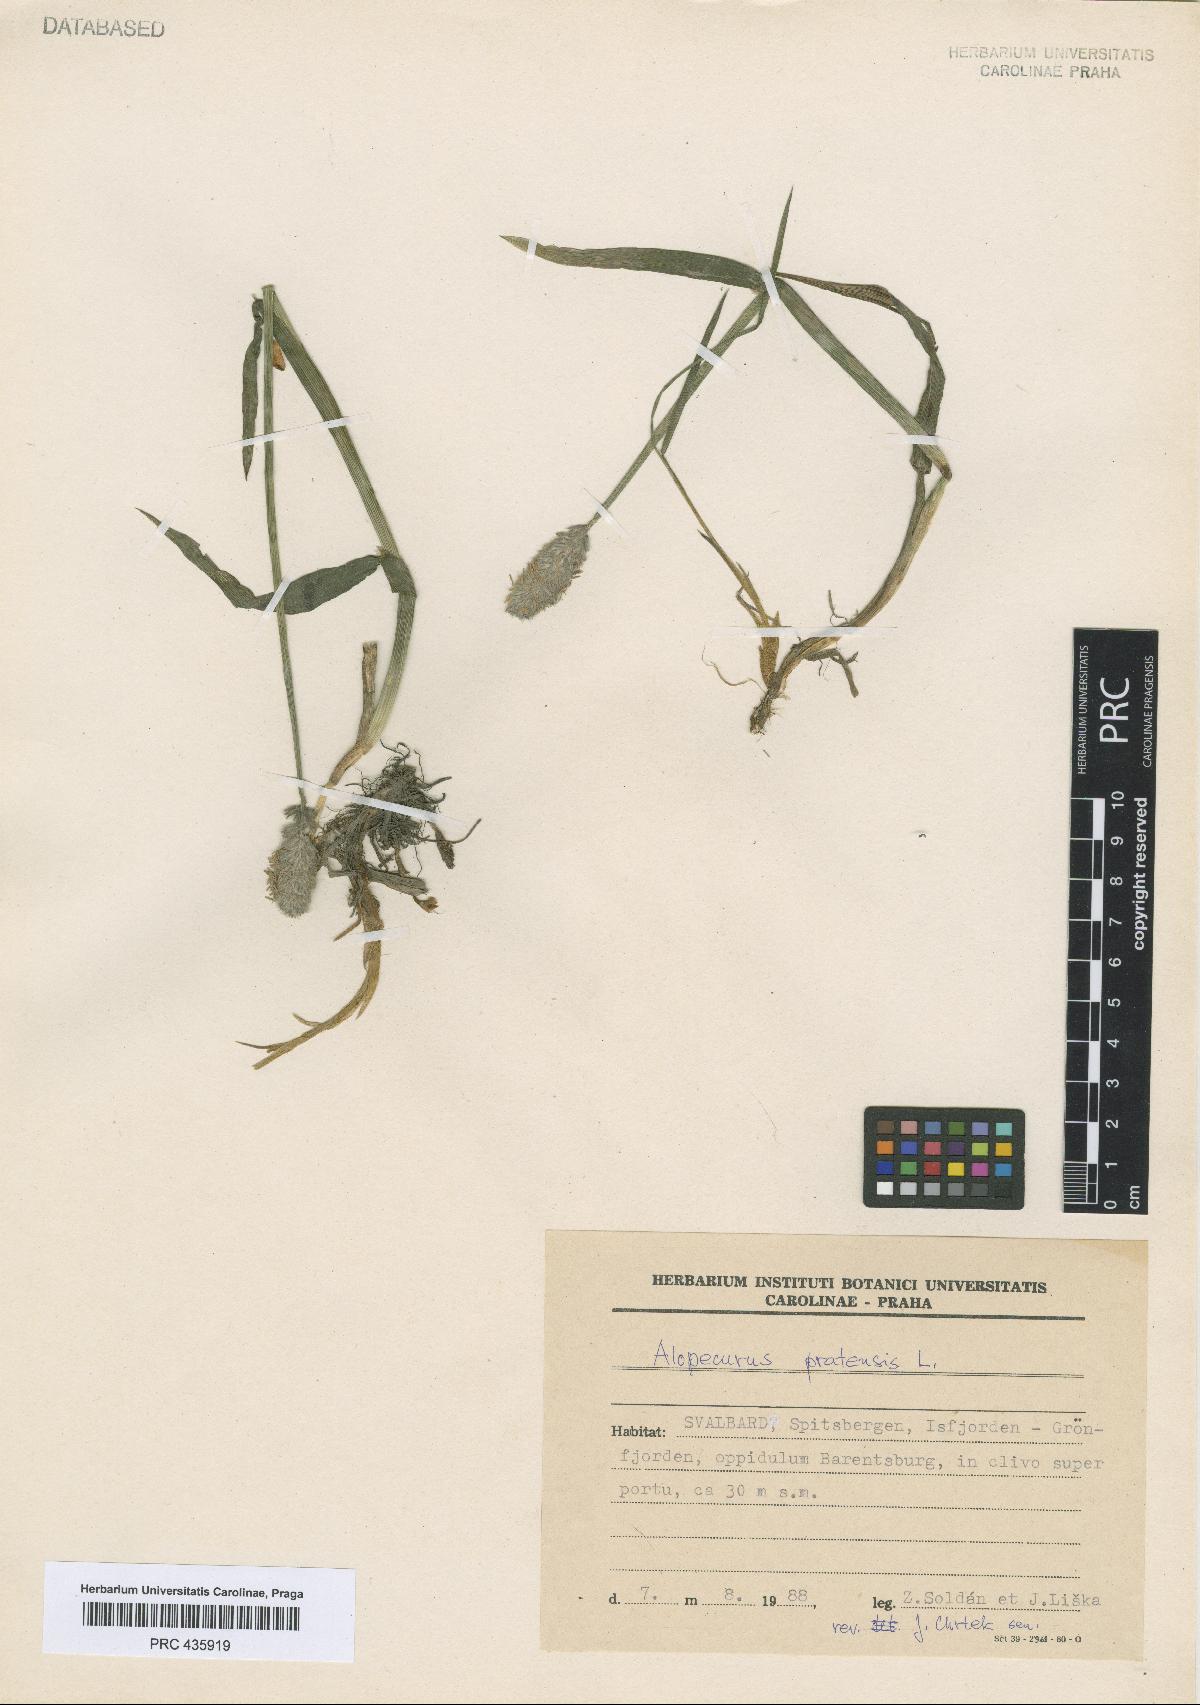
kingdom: Plantae
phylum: Tracheophyta
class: Liliopsida
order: Poales
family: Poaceae
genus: Alopecurus
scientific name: Alopecurus pratensis
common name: Meadow foxtail
